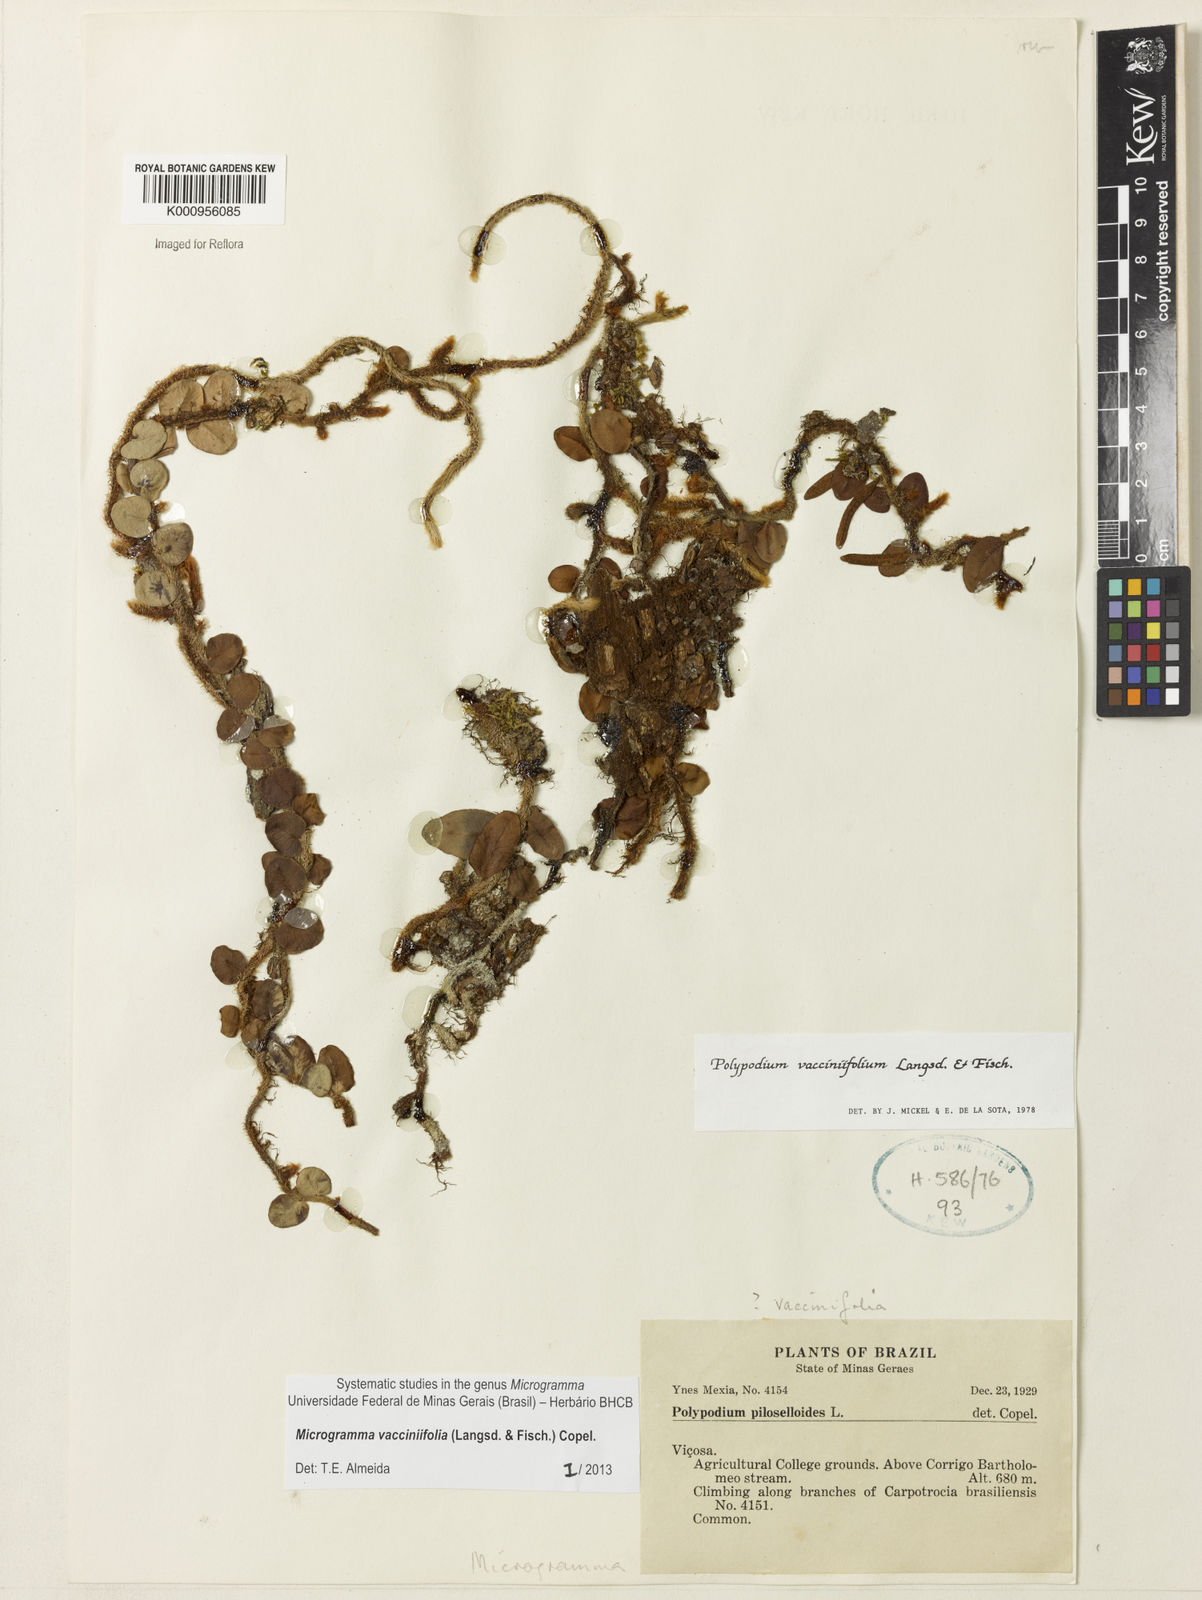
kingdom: Plantae
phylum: Tracheophyta
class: Polypodiopsida
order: Polypodiales
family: Polypodiaceae
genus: Phlebodium
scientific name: Phlebodium
